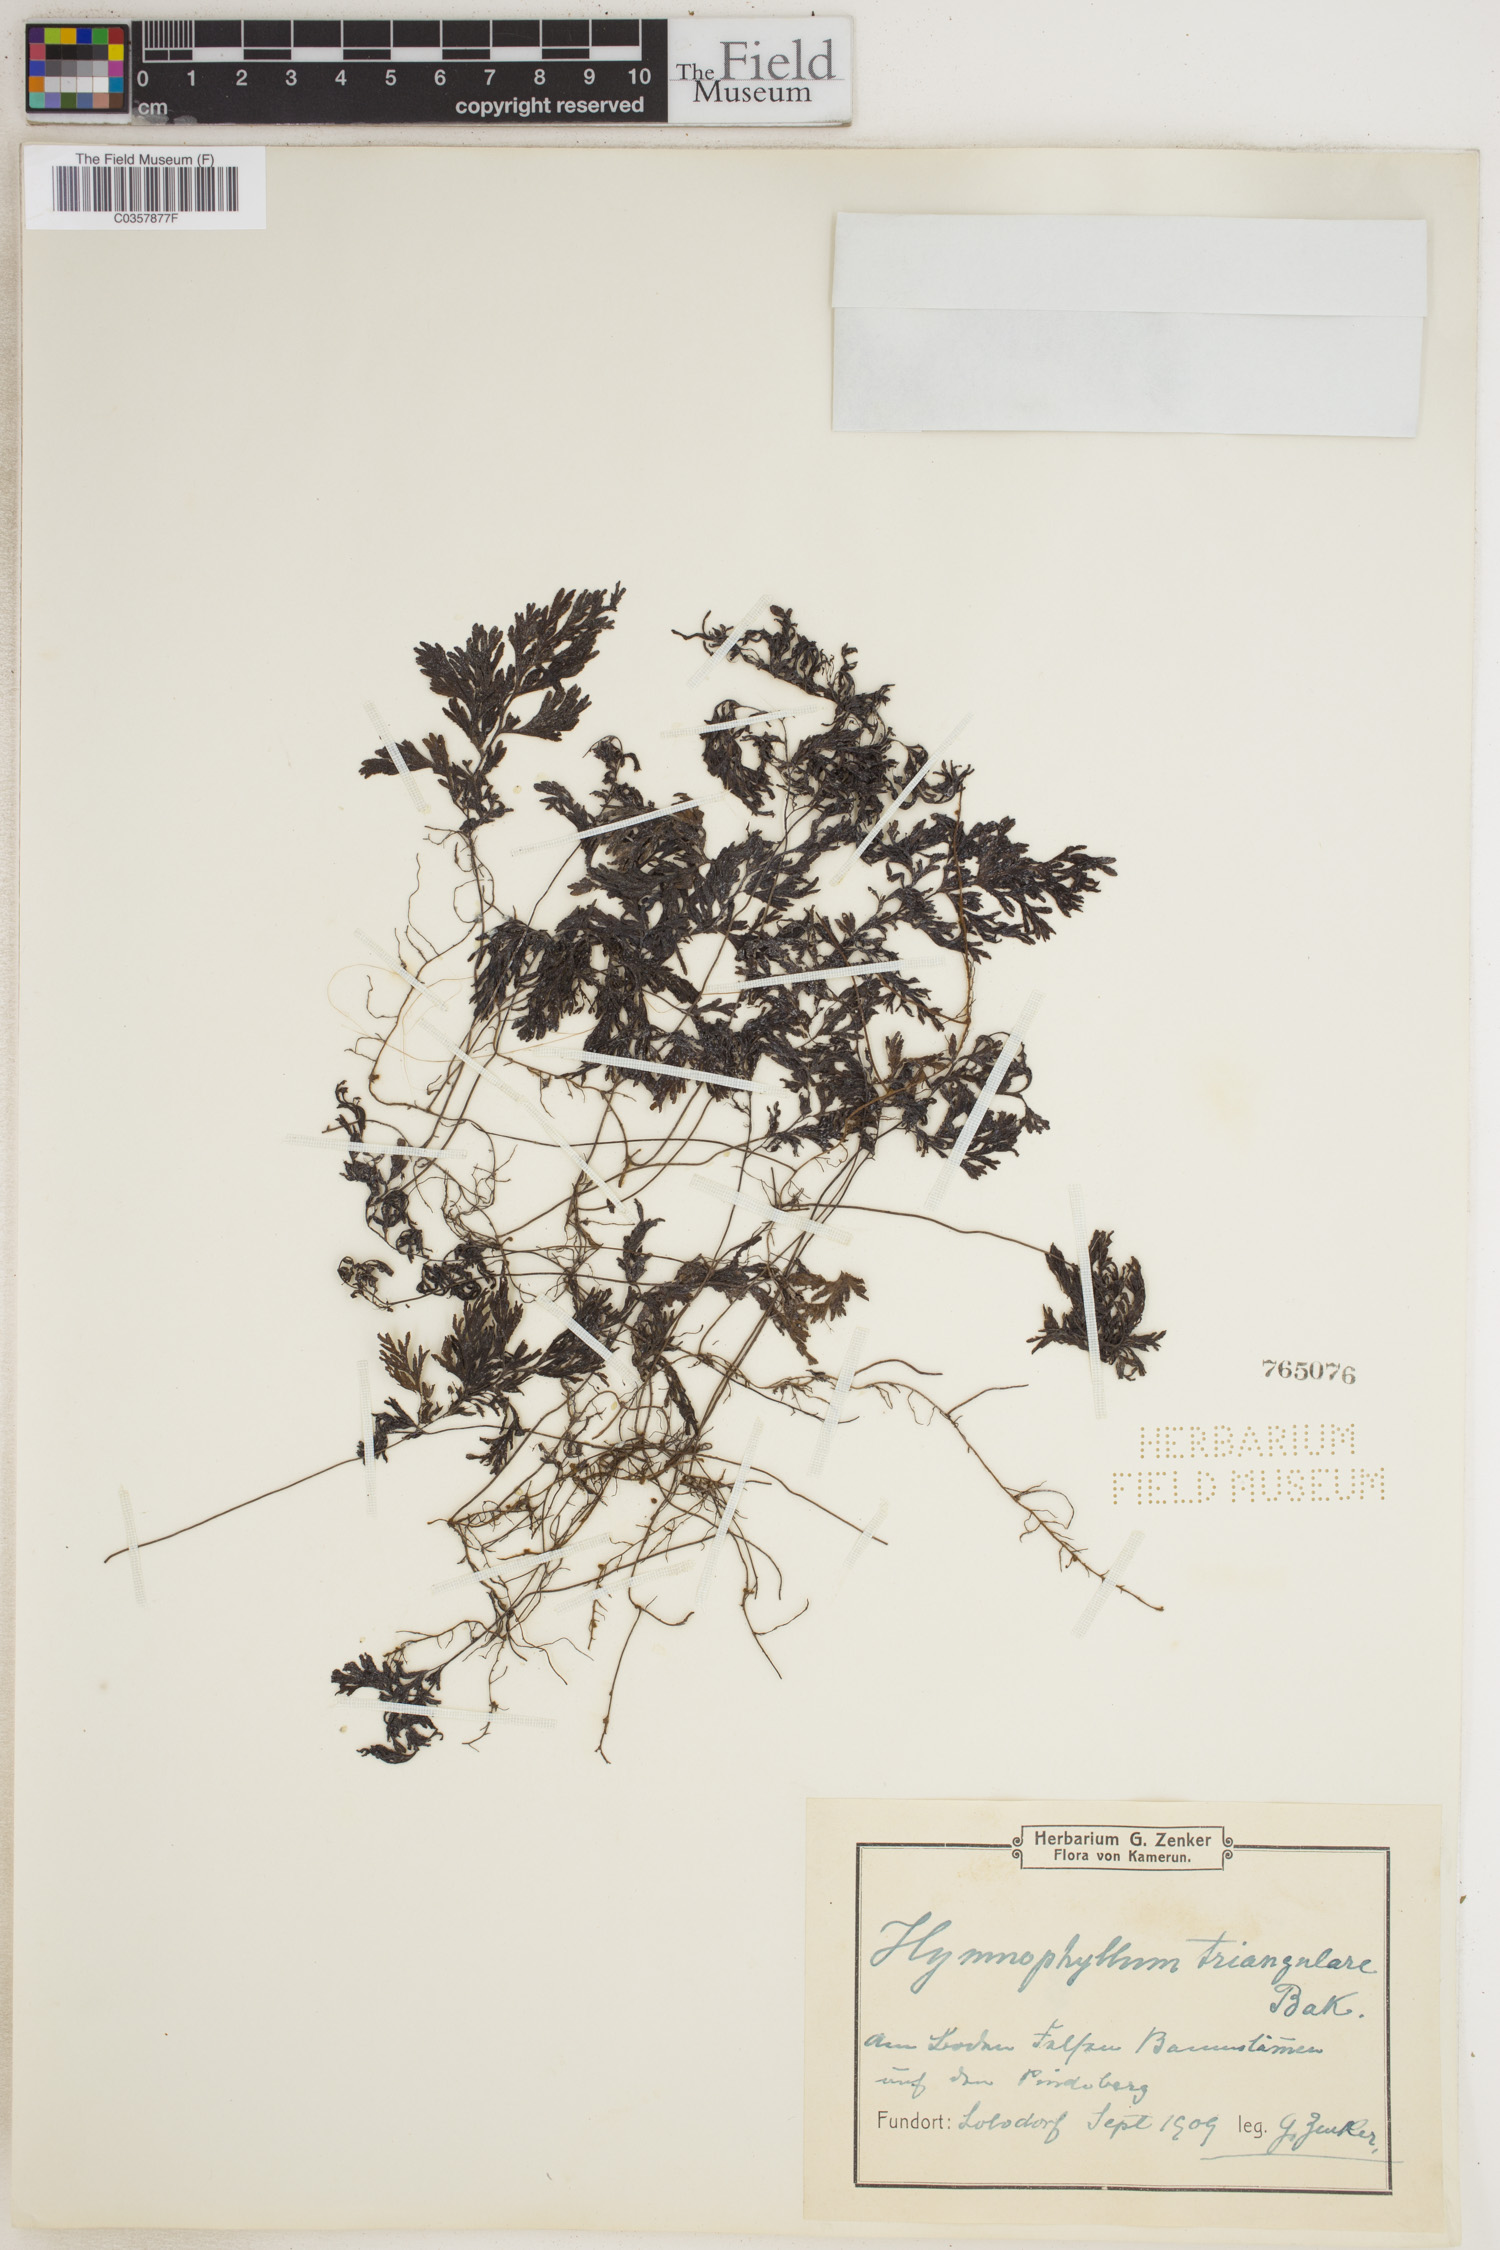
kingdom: Plantae
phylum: Tracheophyta
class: Polypodiopsida
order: Hymenophyllales
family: Hymenophyllaceae
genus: Hymenophyllum
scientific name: Hymenophyllum triangulare
